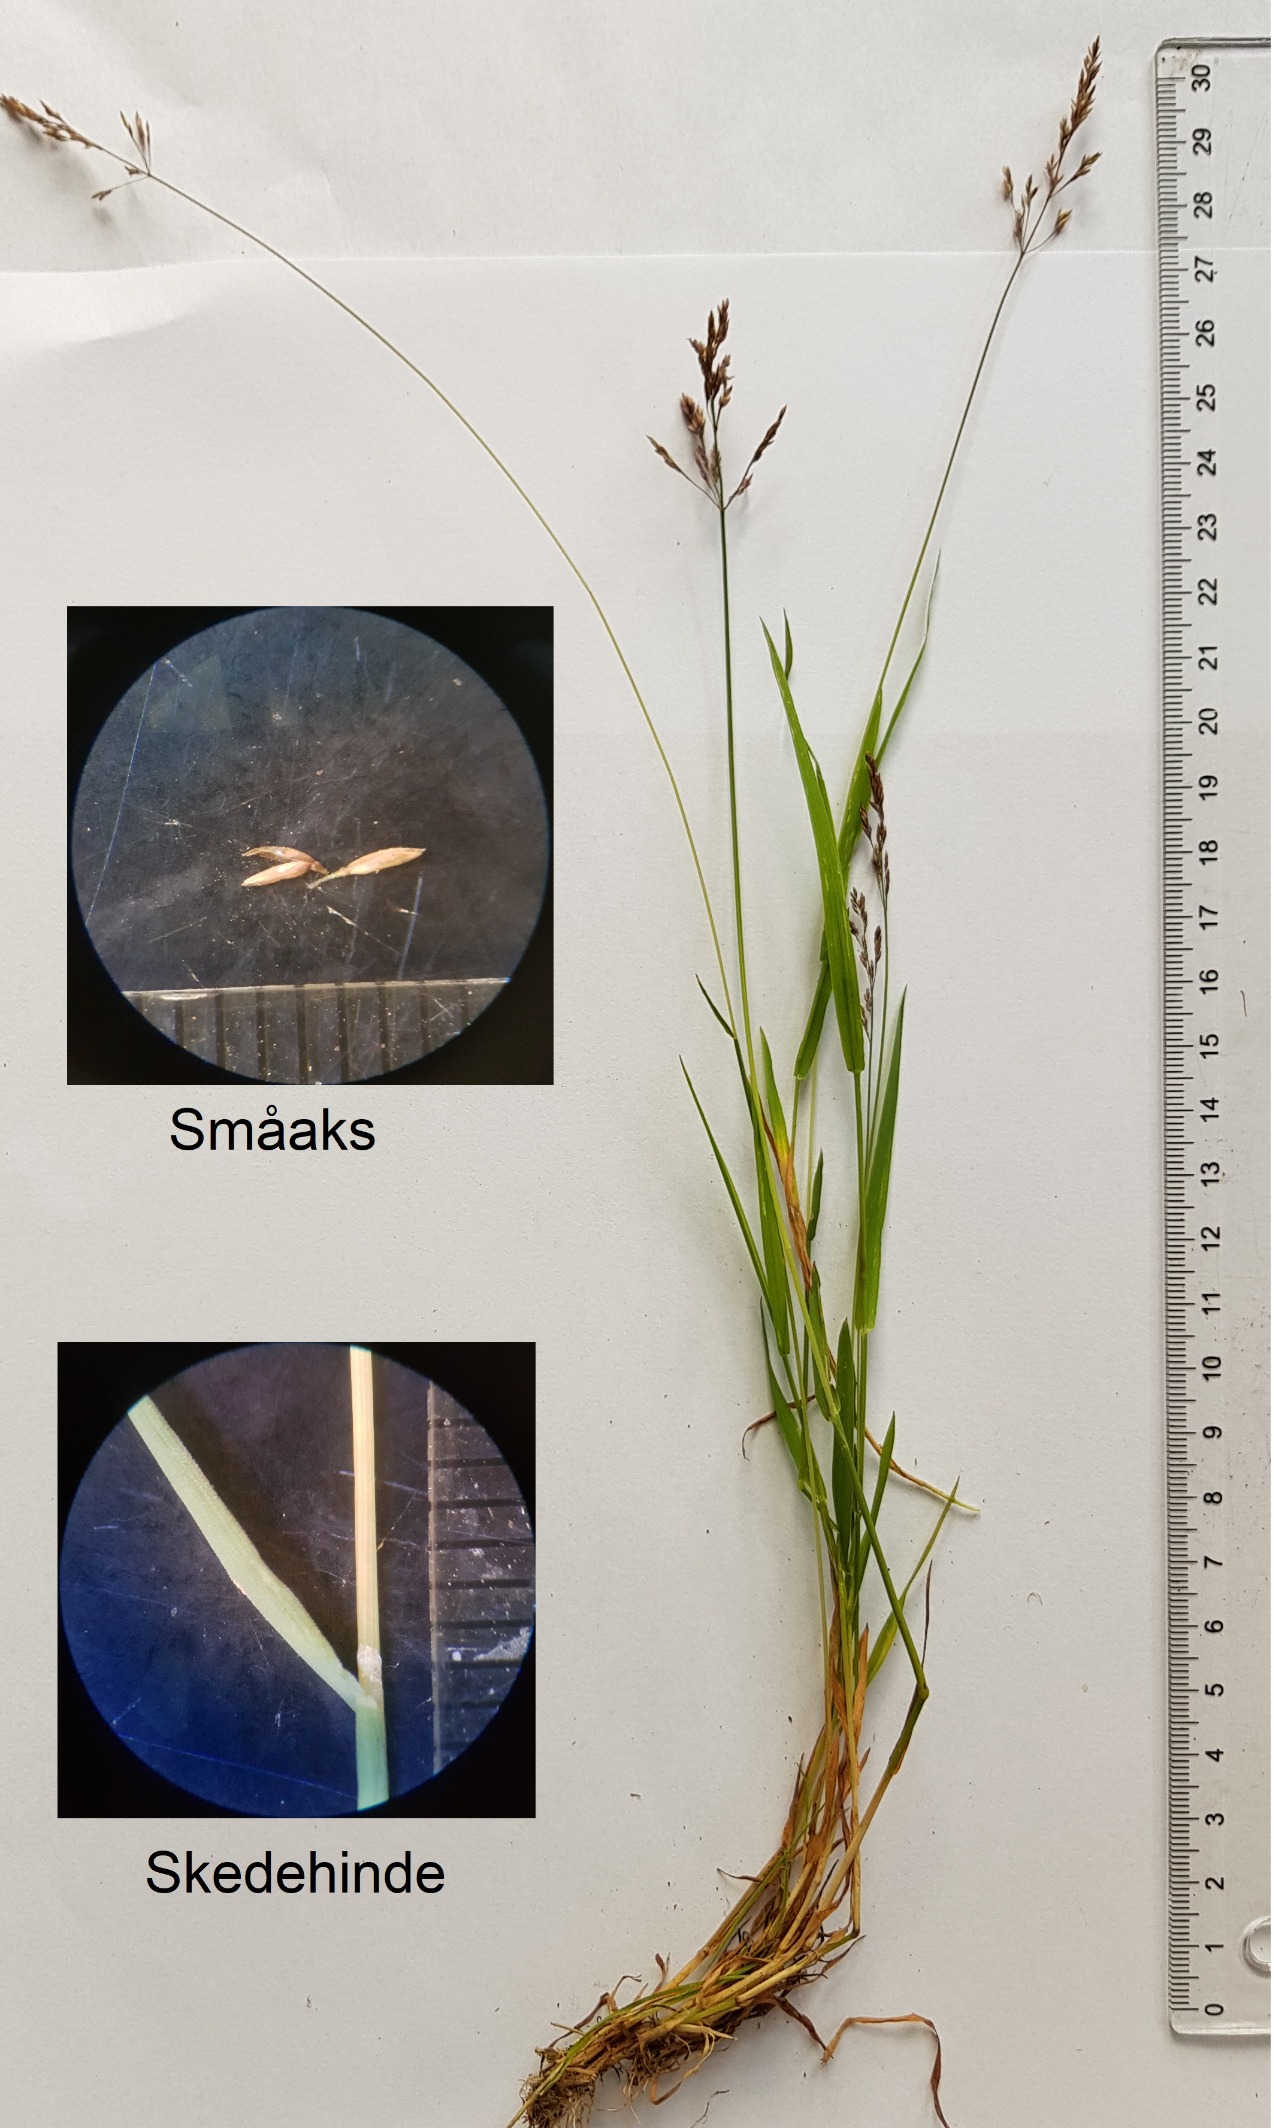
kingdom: Plantae
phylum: Tracheophyta
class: Liliopsida
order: Poales
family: Poaceae
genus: Agrostis
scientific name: Agrostis stolonifera
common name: Kryb-hvene
